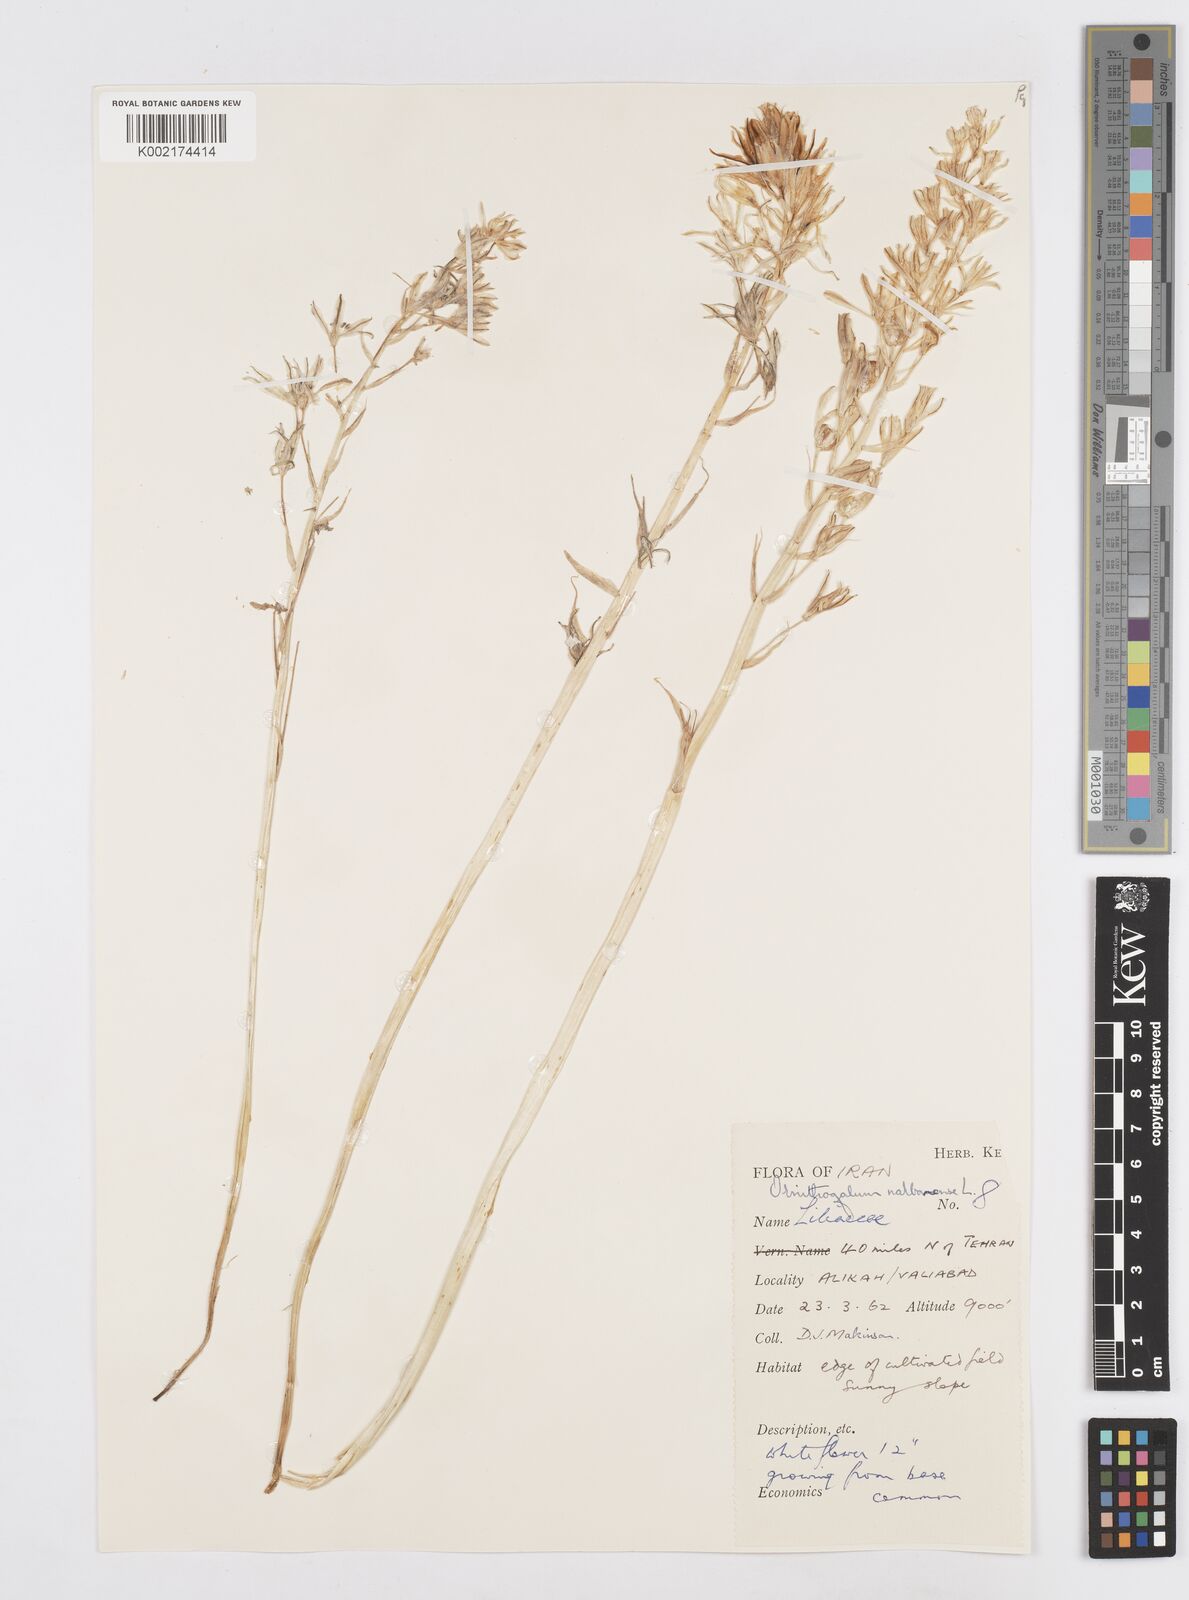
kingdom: Plantae
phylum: Tracheophyta
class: Liliopsida
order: Asparagales
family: Asparagaceae
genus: Ornithogalum
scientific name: Ornithogalum narbonense
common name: Bath-asparagus
